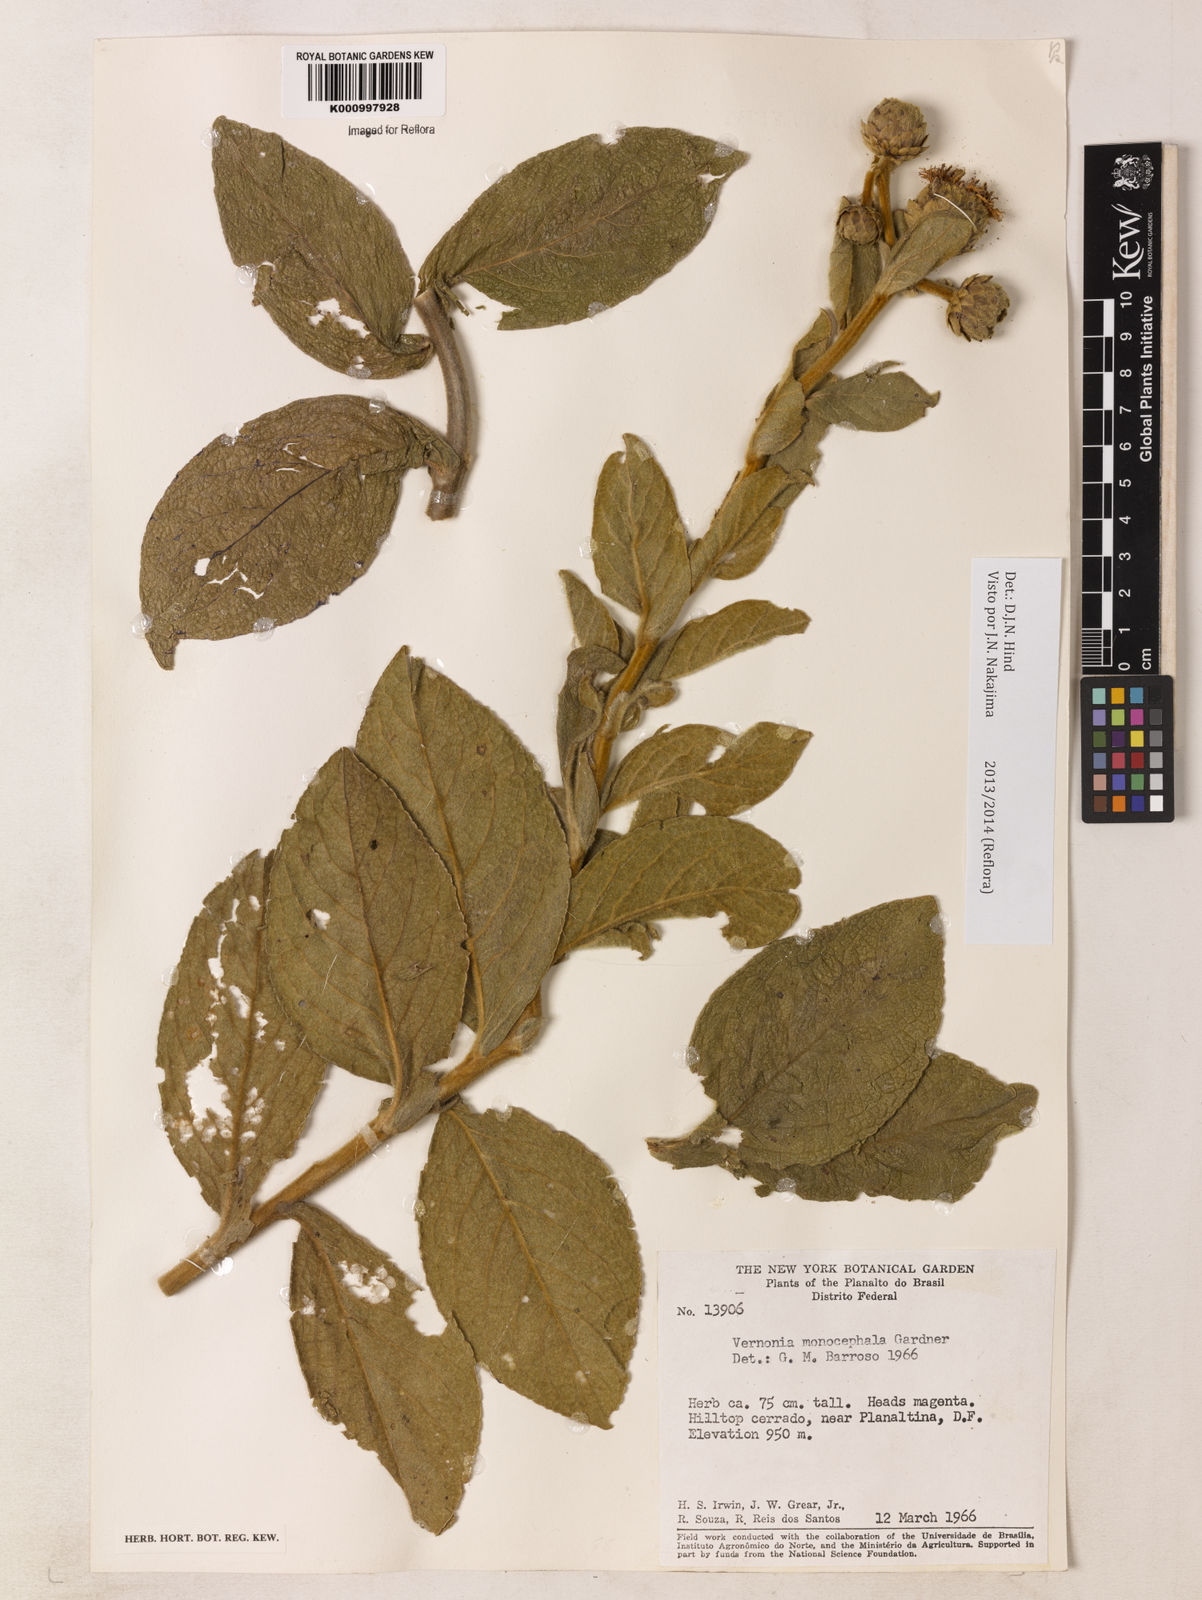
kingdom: Plantae
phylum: Tracheophyta
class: Magnoliopsida
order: Asterales
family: Asteraceae
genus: Lessingianthus
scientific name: Lessingianthus monocephalus
